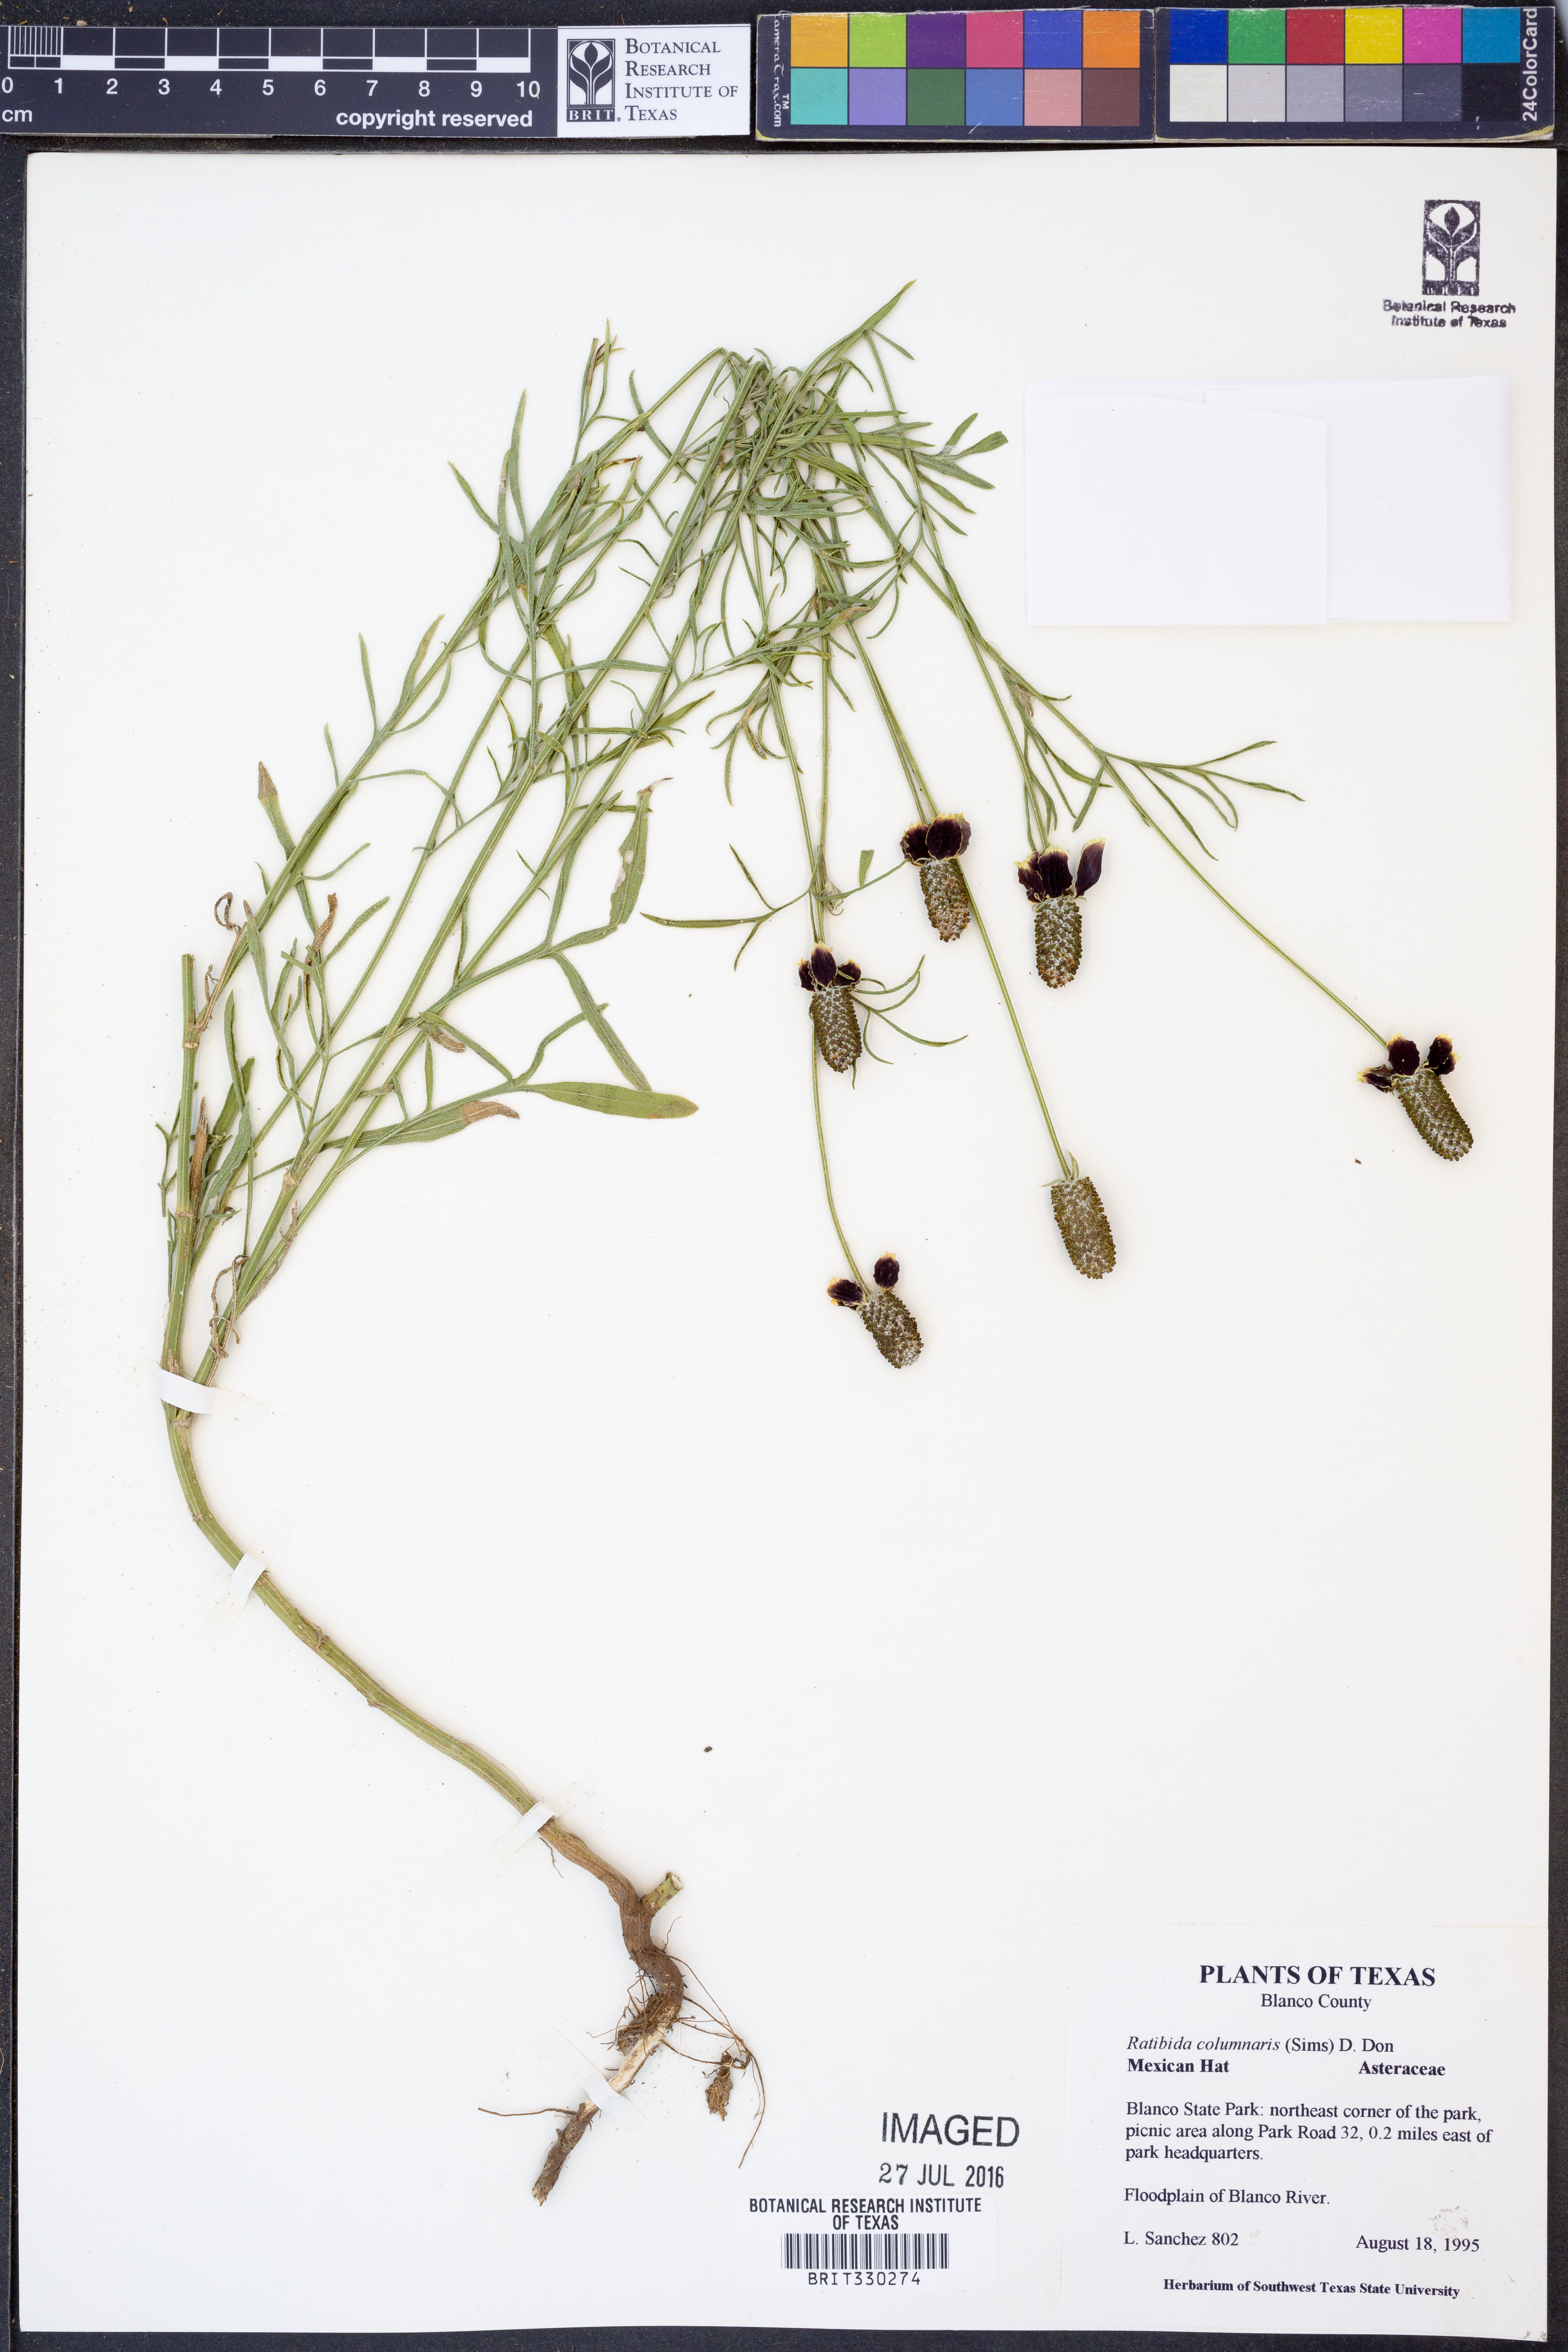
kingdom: Plantae
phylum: Tracheophyta
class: Magnoliopsida
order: Asterales
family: Asteraceae
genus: Ratibida
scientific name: Ratibida columnifera
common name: Prairie coneflower
